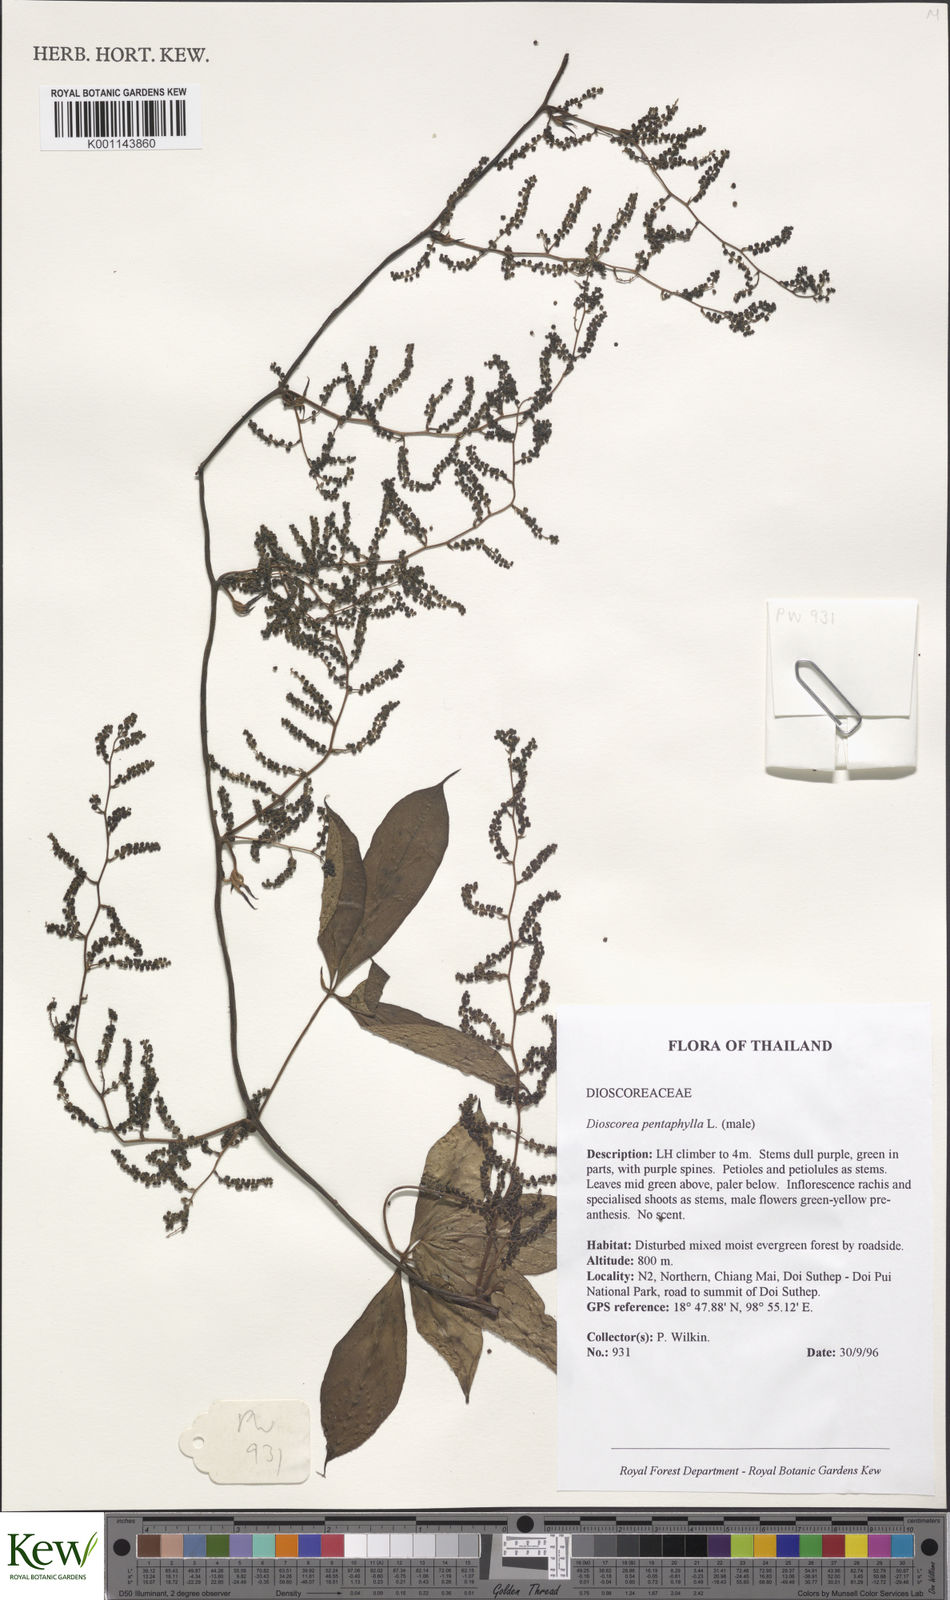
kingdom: Plantae
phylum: Tracheophyta
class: Liliopsida
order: Dioscoreales
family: Dioscoreaceae
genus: Dioscorea
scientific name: Dioscorea pentaphylla
